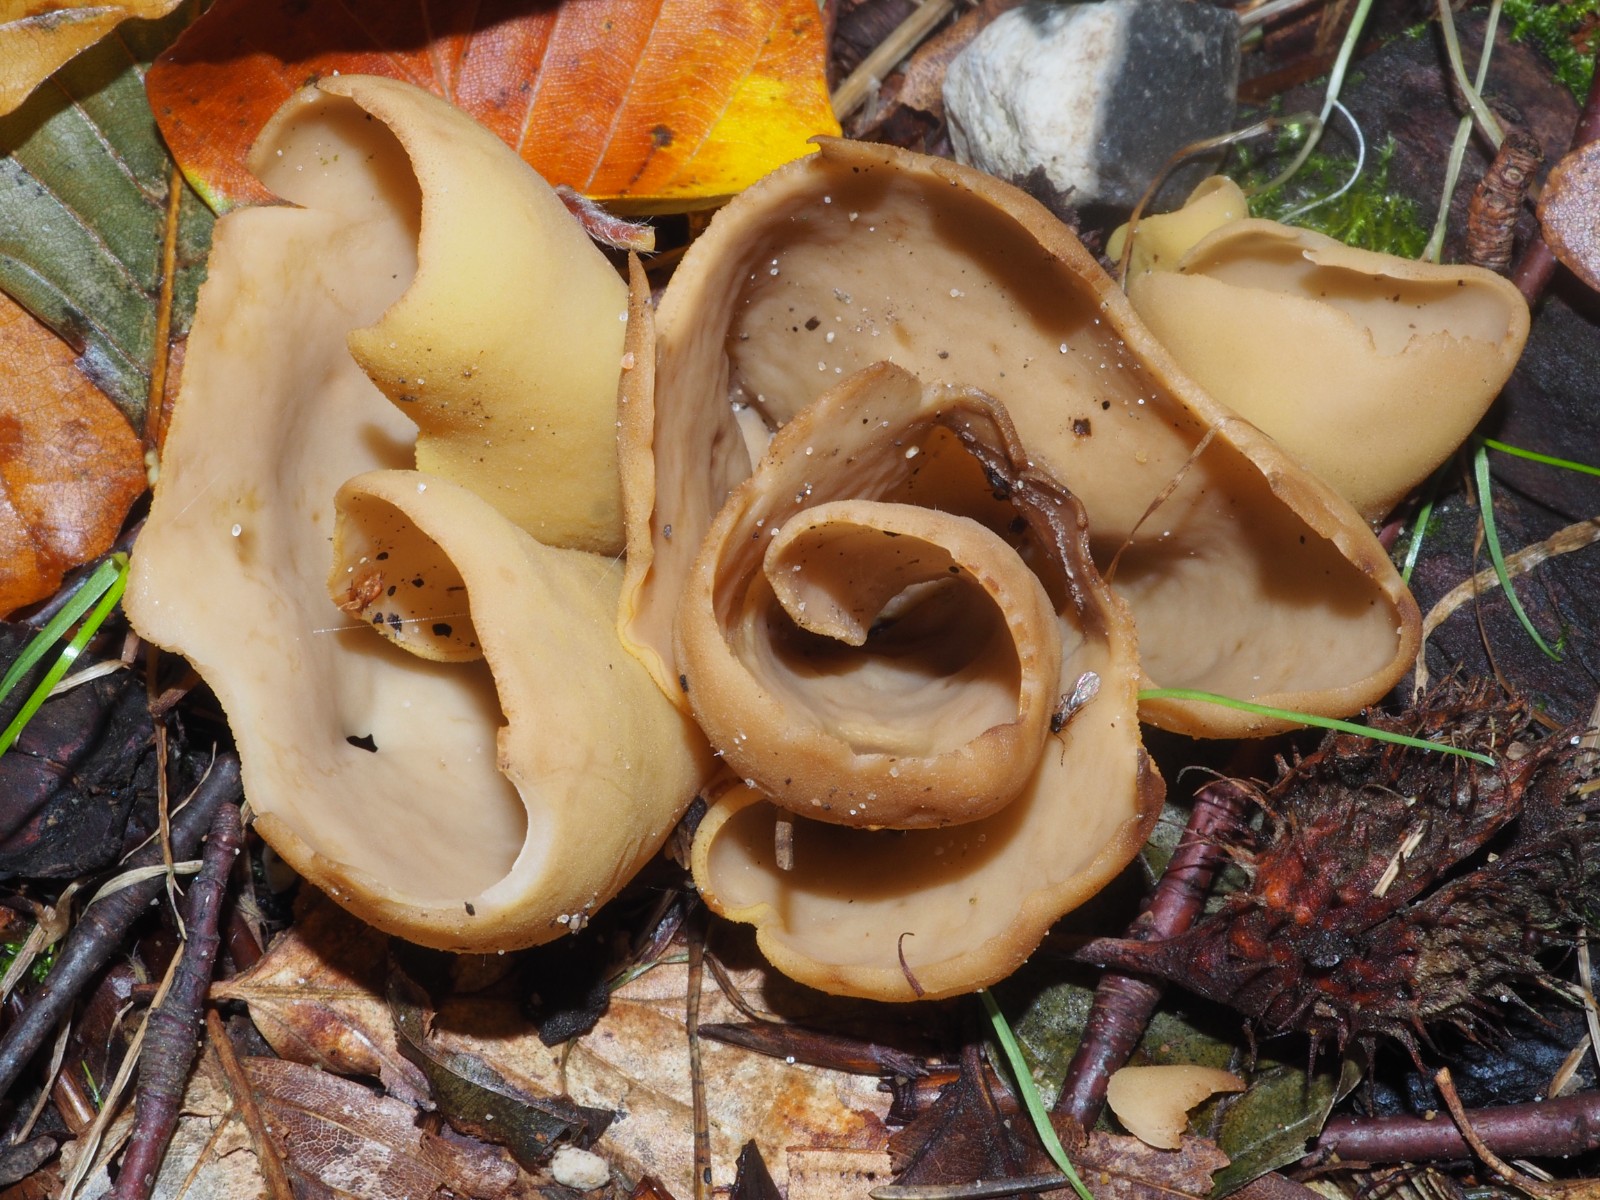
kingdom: Fungi
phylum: Ascomycota
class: Pezizomycetes
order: Pezizales
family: Otideaceae
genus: Otidea
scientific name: Otidea
